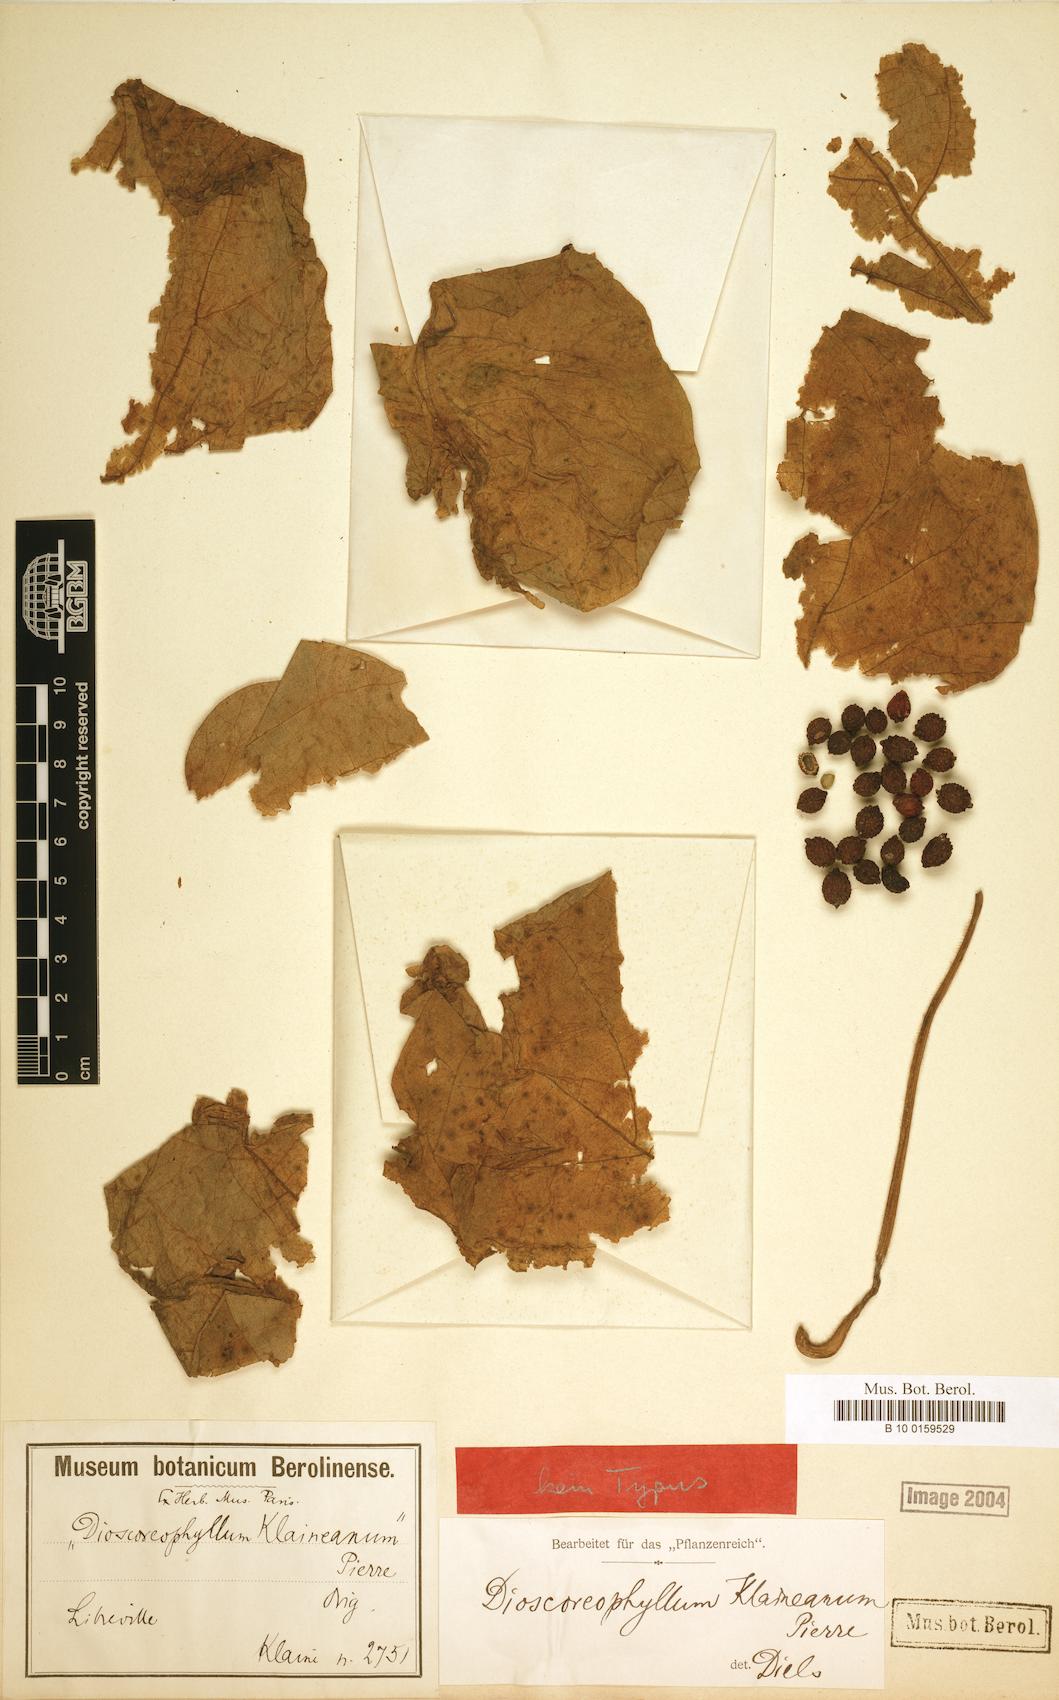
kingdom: Plantae
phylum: Tracheophyta
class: Magnoliopsida
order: Ranunculales
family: Menispermaceae
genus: Dioscoreophyllum
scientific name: Dioscoreophyllum volkensii
